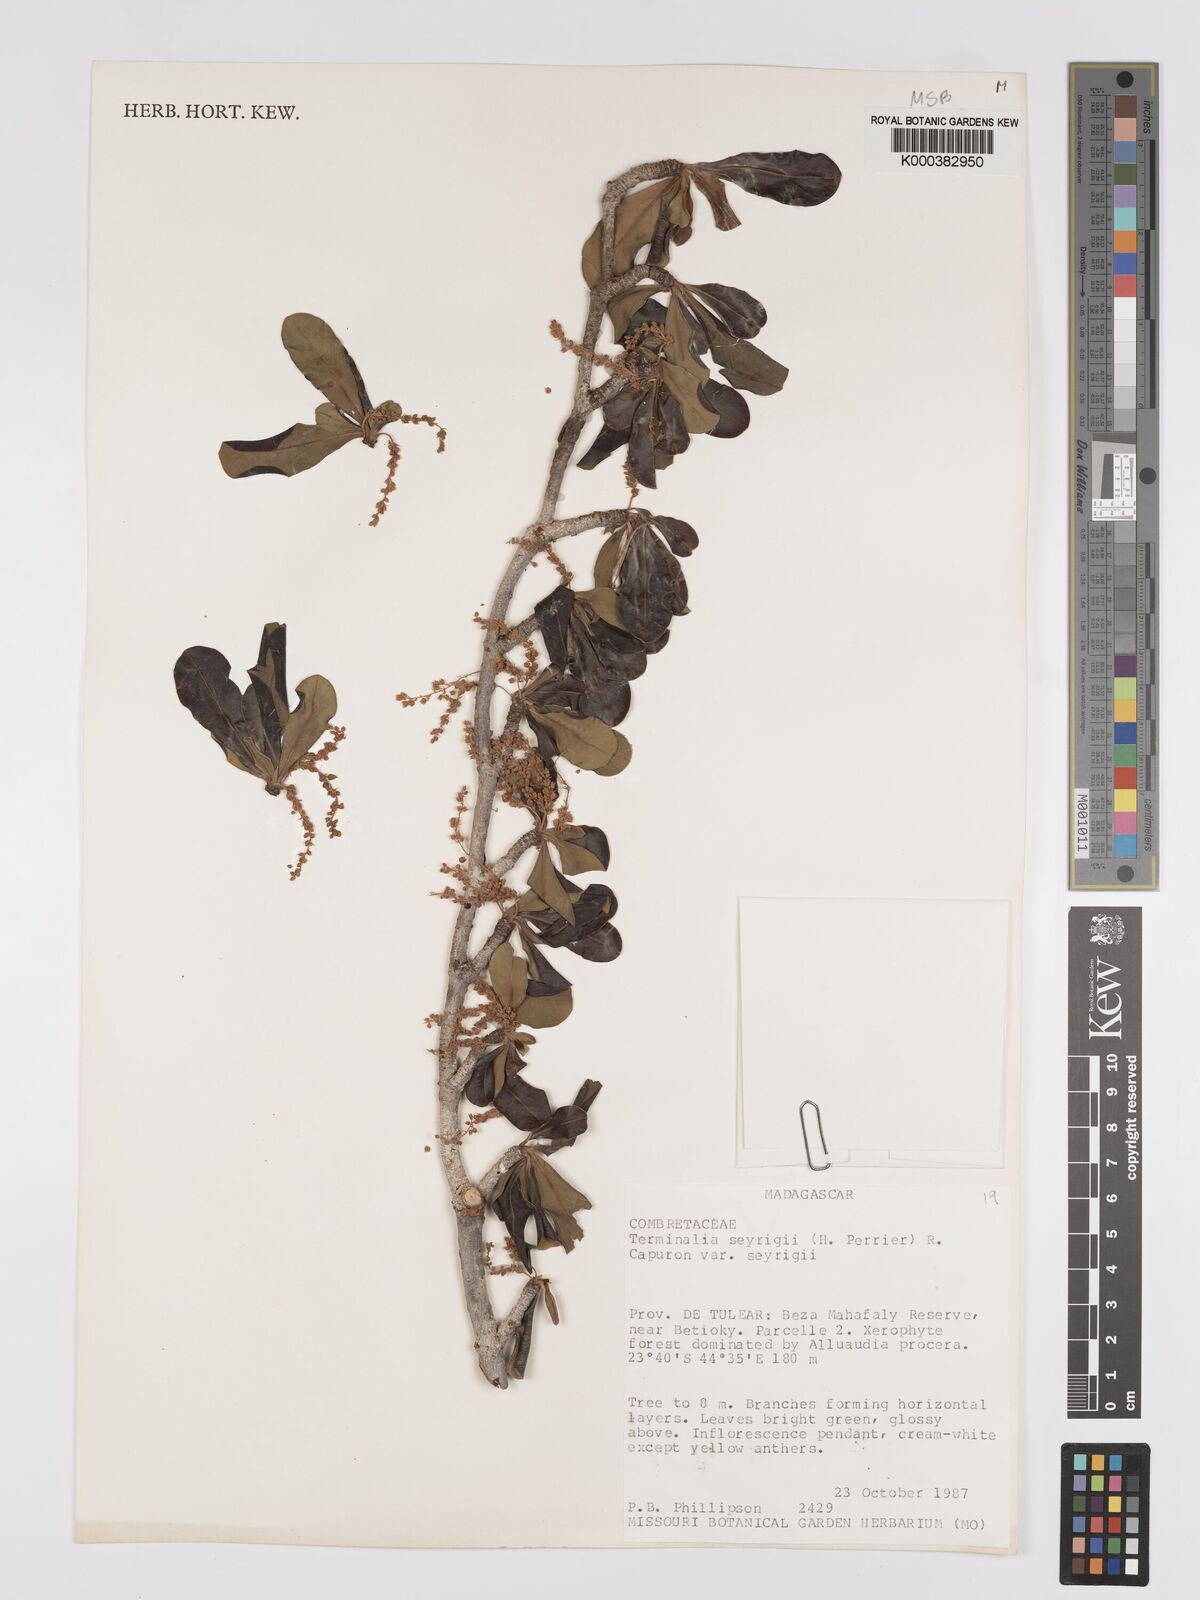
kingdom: Plantae
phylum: Tracheophyta
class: Magnoliopsida
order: Myrtales
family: Combretaceae
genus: Terminalia
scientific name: Terminalia
